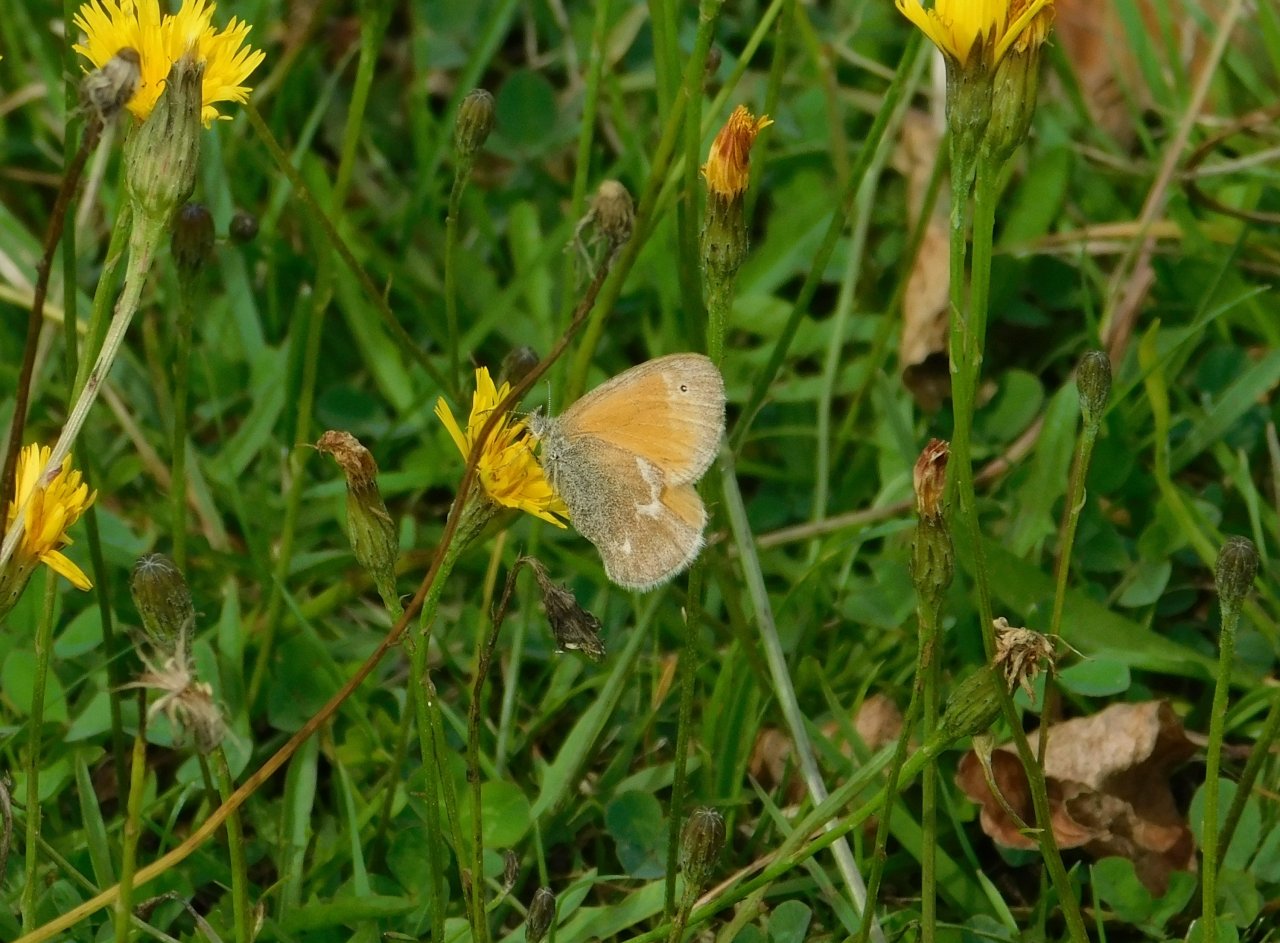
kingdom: Animalia
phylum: Arthropoda
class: Insecta
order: Lepidoptera
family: Nymphalidae
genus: Coenonympha
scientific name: Coenonympha tullia
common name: Large Heath
